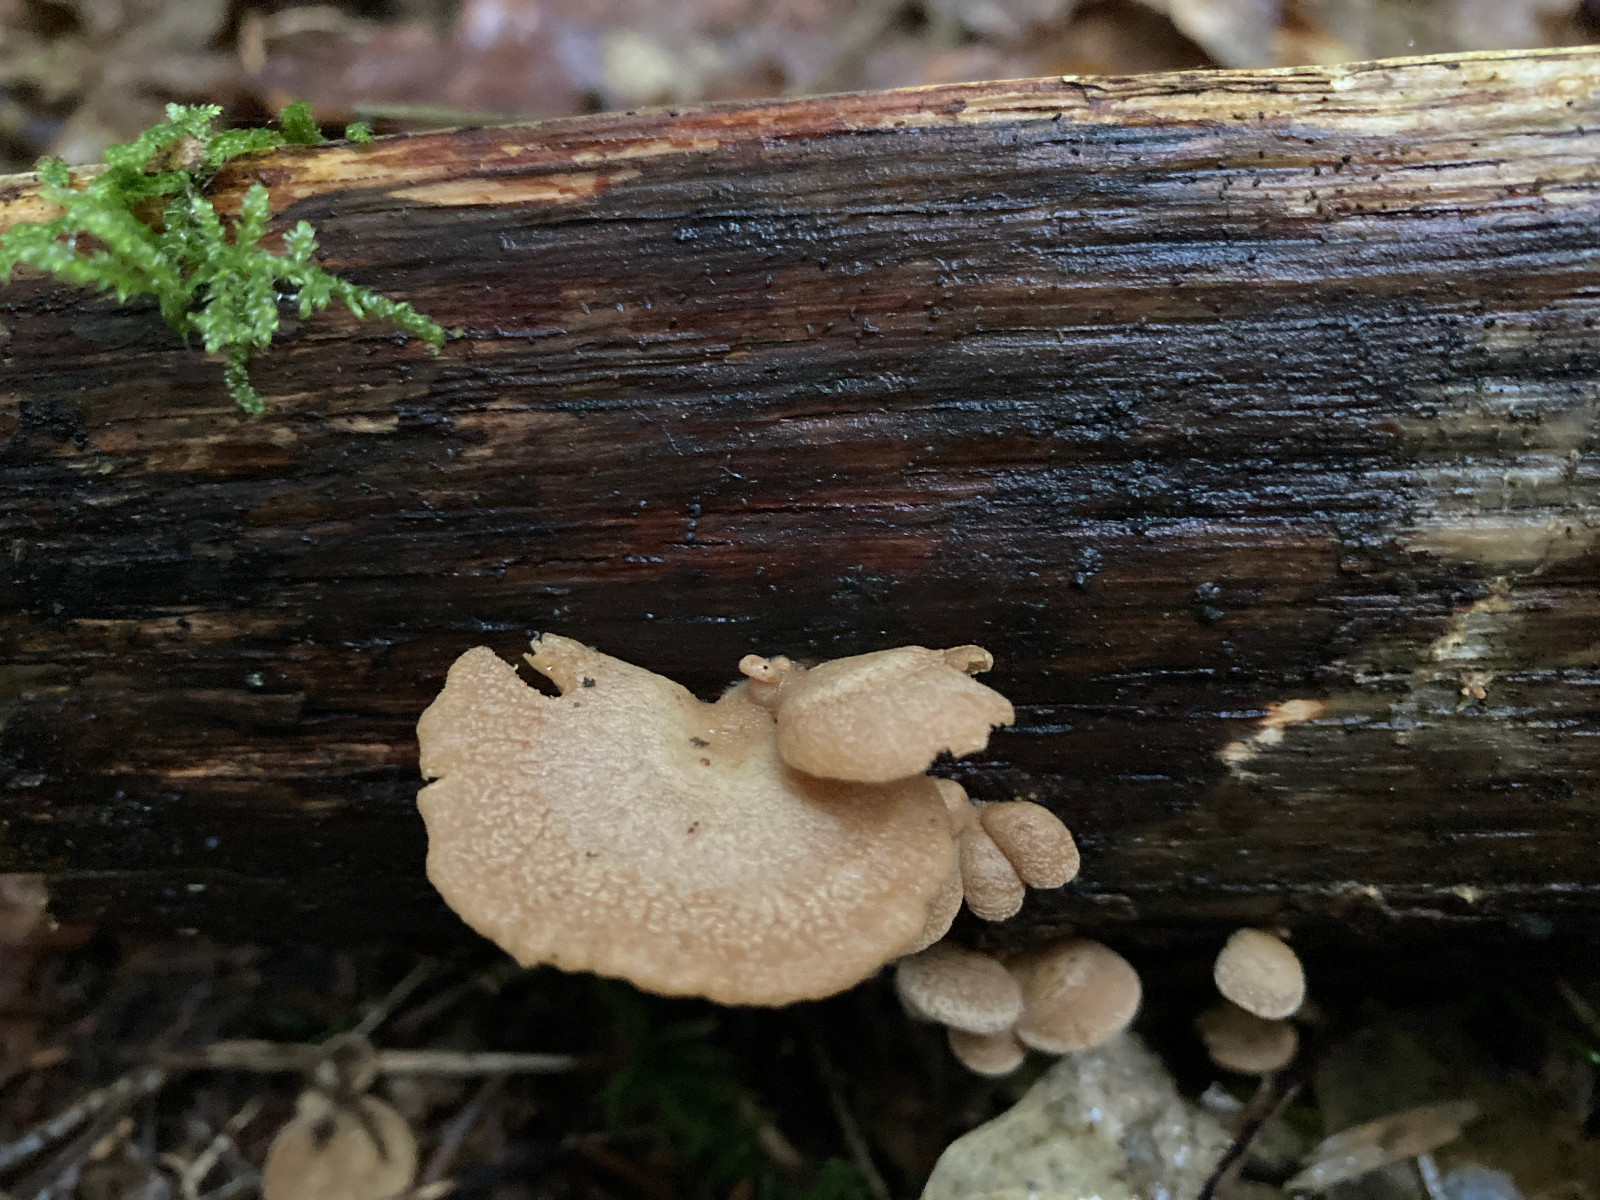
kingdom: Fungi
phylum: Basidiomycota
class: Agaricomycetes
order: Agaricales
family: Mycenaceae
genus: Panellus
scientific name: Panellus stipticus
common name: kliddet epaulethat
